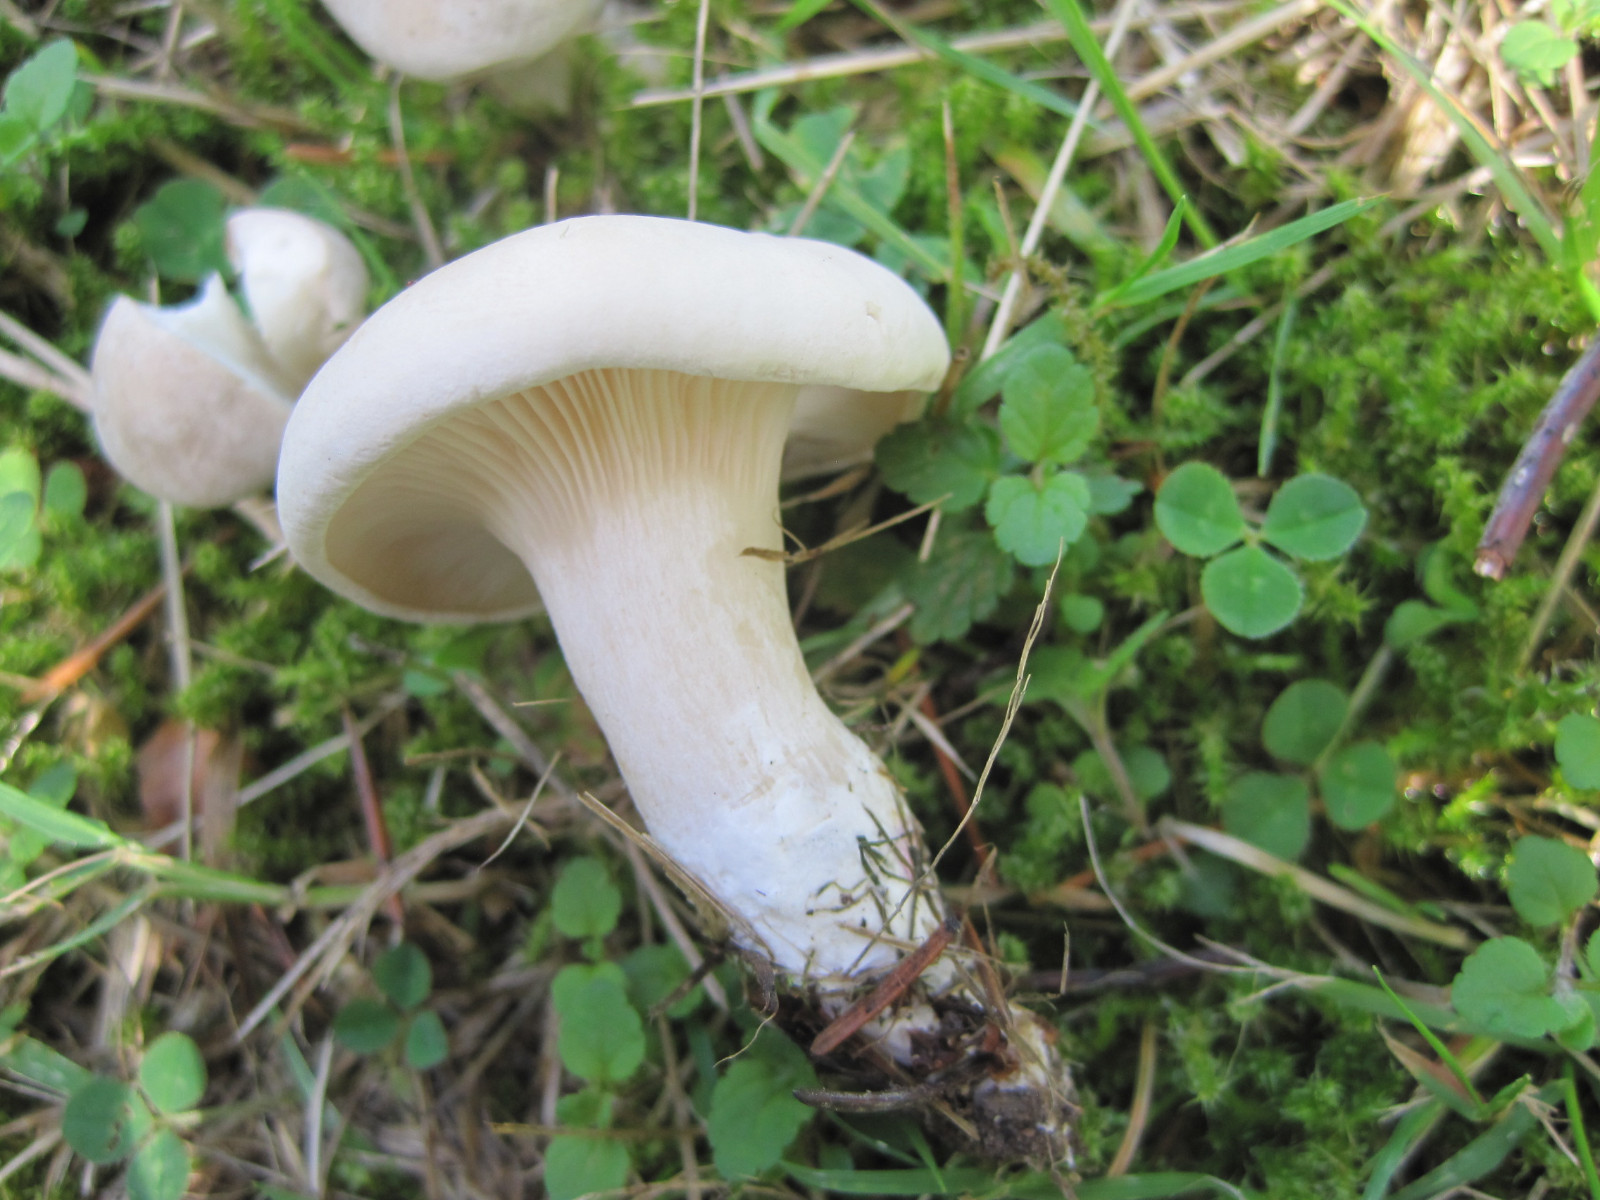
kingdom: Fungi
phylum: Basidiomycota
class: Agaricomycetes
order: Agaricales
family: Entolomataceae
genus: Clitopilus
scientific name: Clitopilus prunulus
